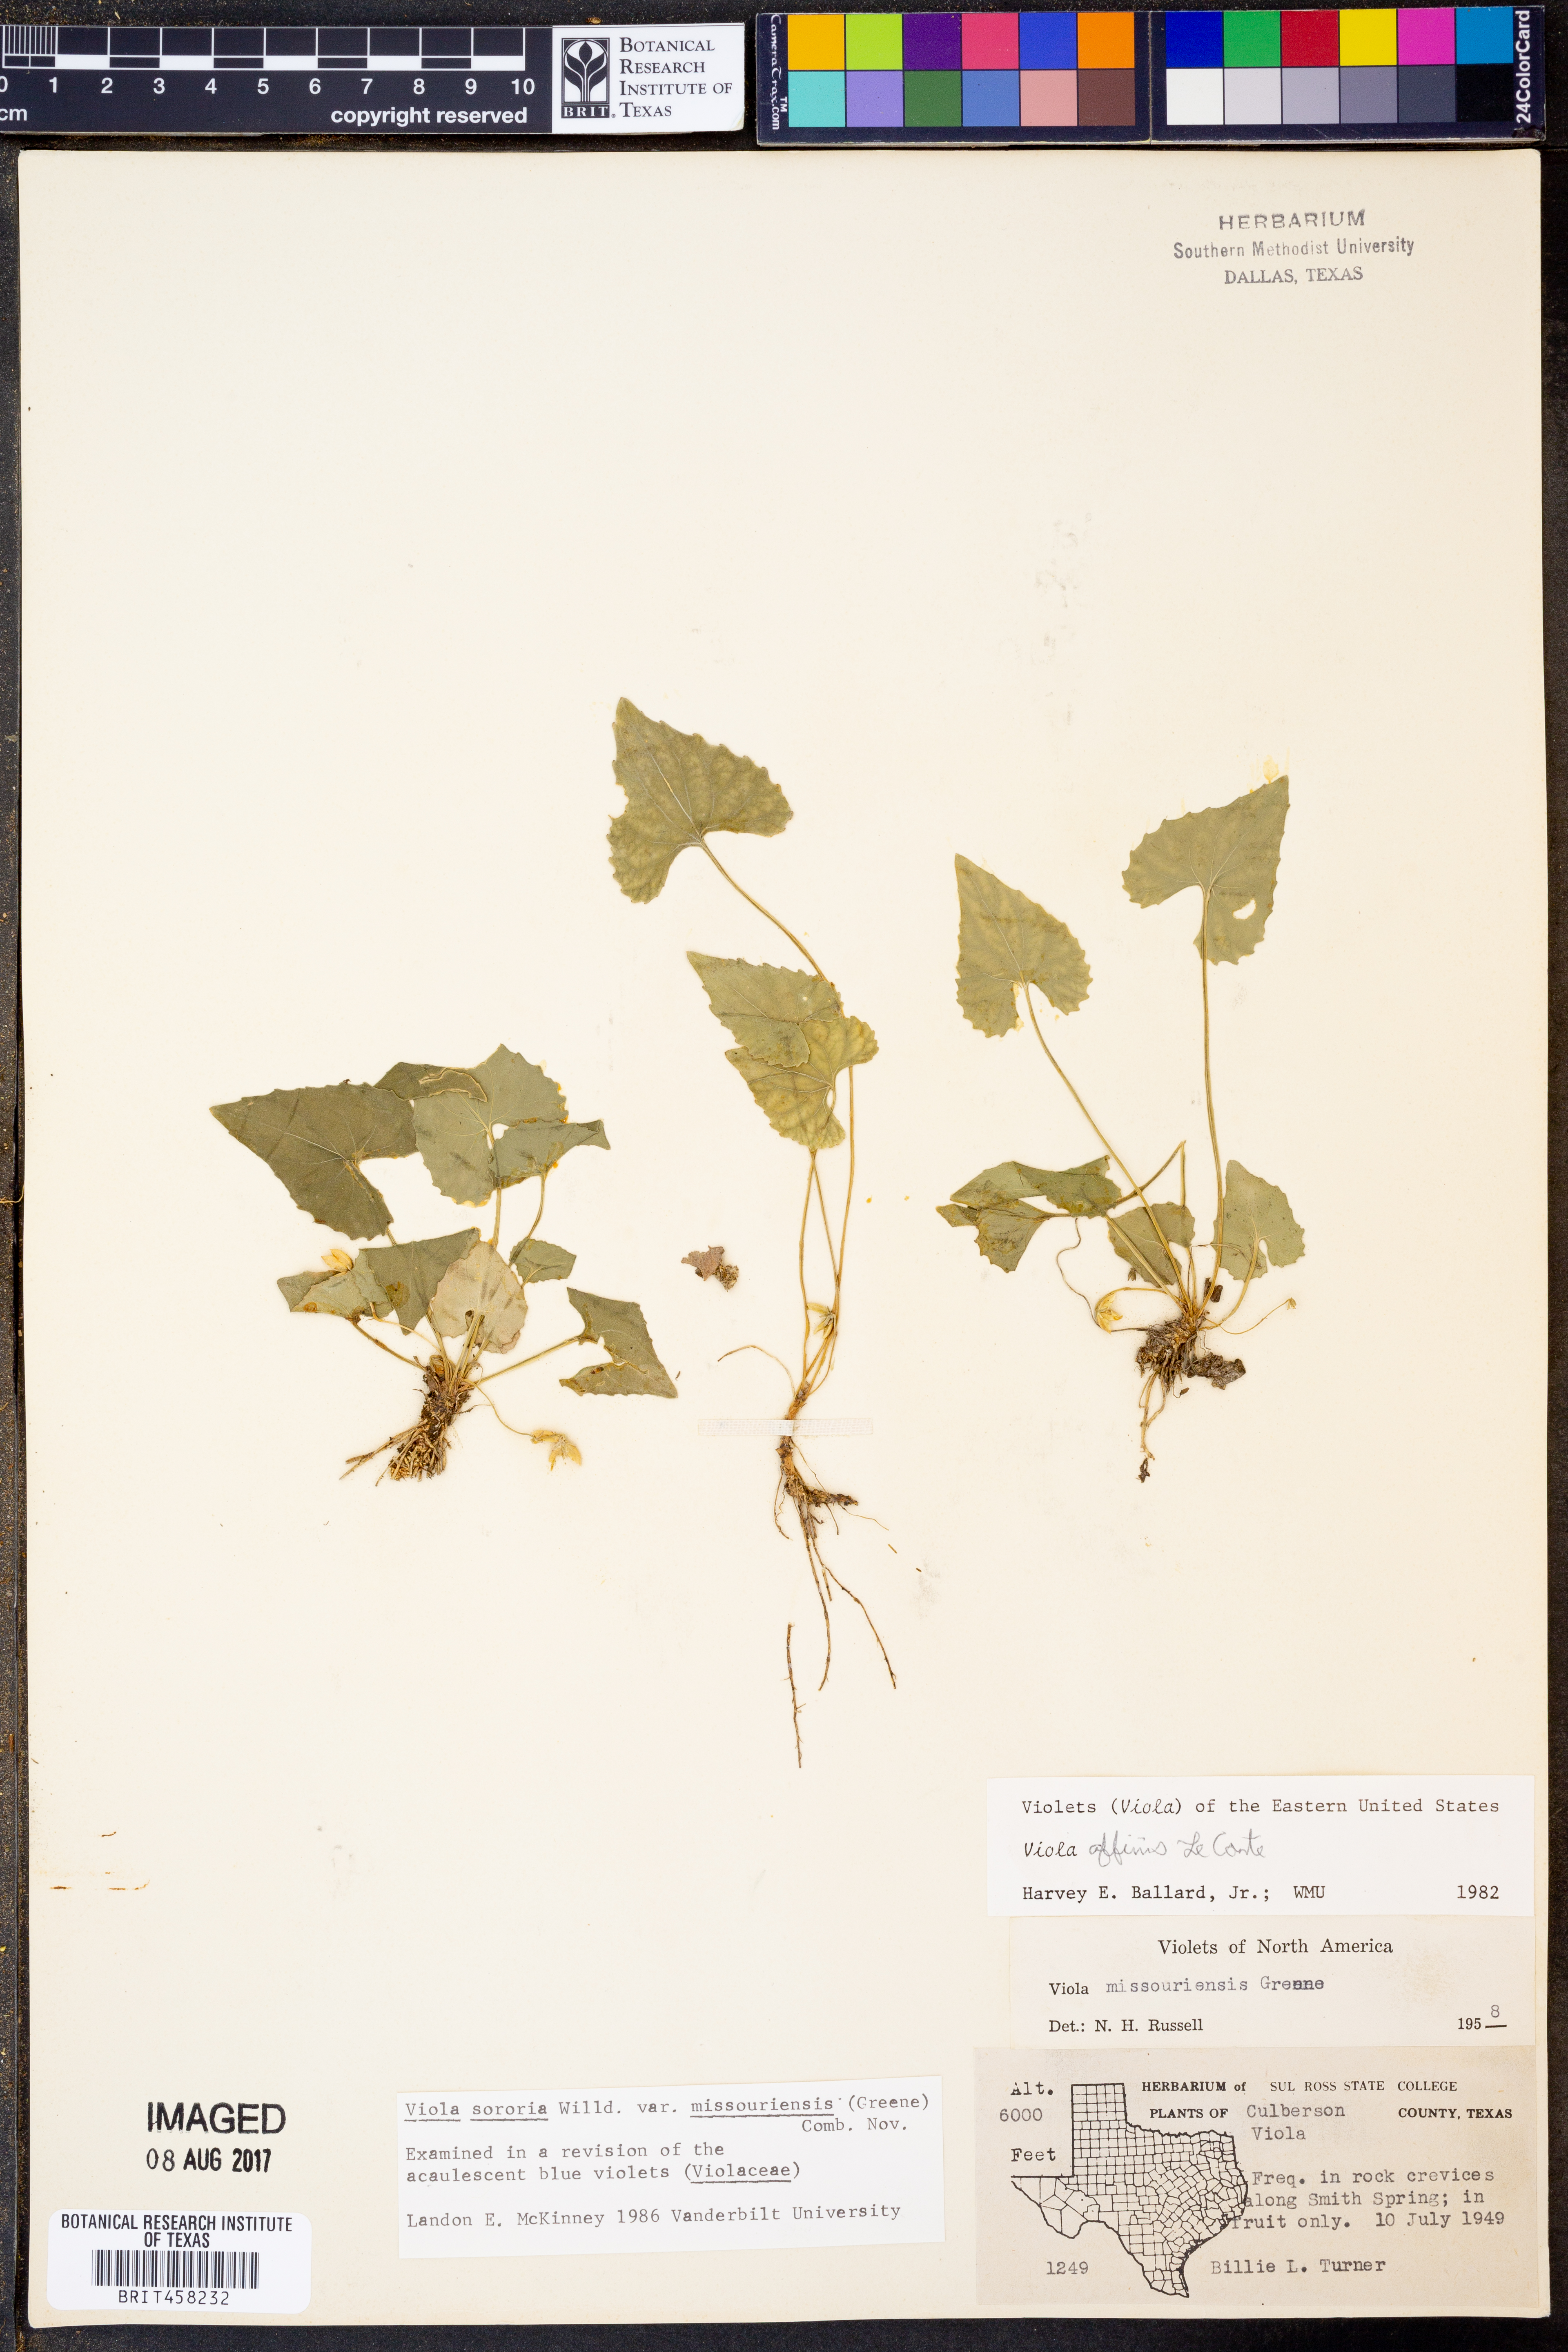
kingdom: Plantae
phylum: Tracheophyta
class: Magnoliopsida
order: Malpighiales
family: Violaceae
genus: Viola
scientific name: Viola missouriensis
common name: Missouri violet
